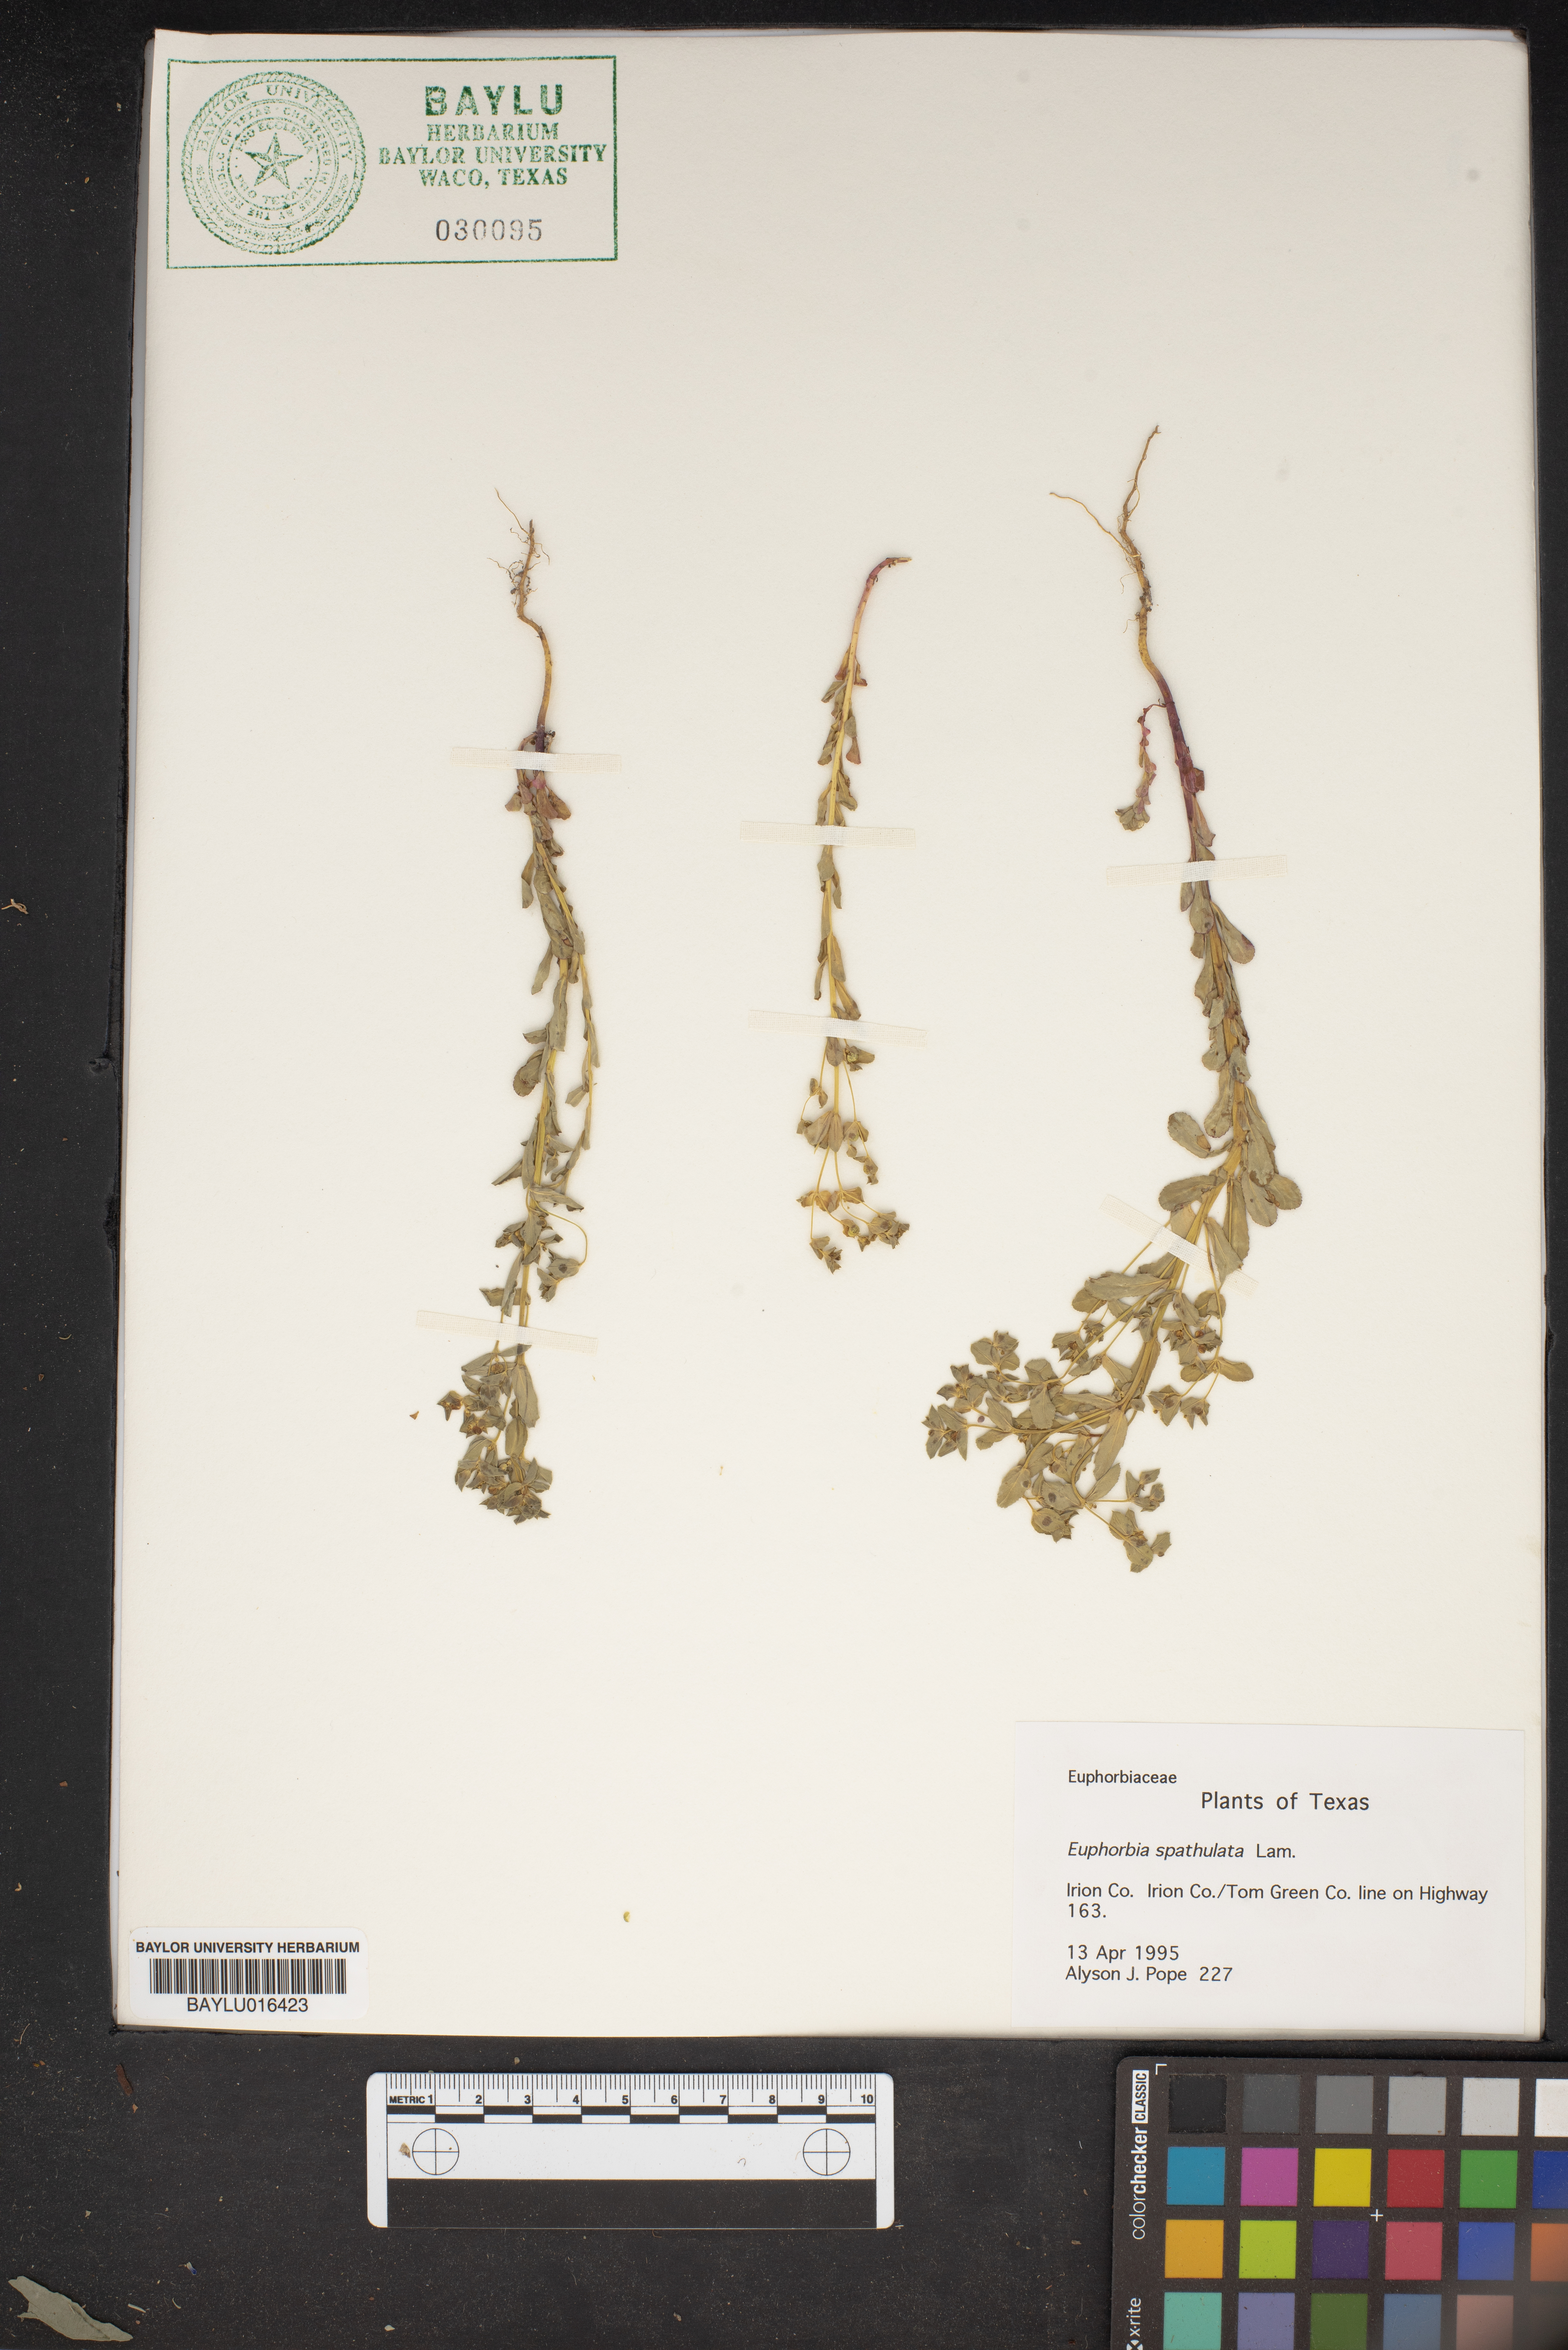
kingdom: Plantae
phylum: Tracheophyta
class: Magnoliopsida
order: Malpighiales
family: Euphorbiaceae
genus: Euphorbia
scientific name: Euphorbia spathulata
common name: Blunt spurge
